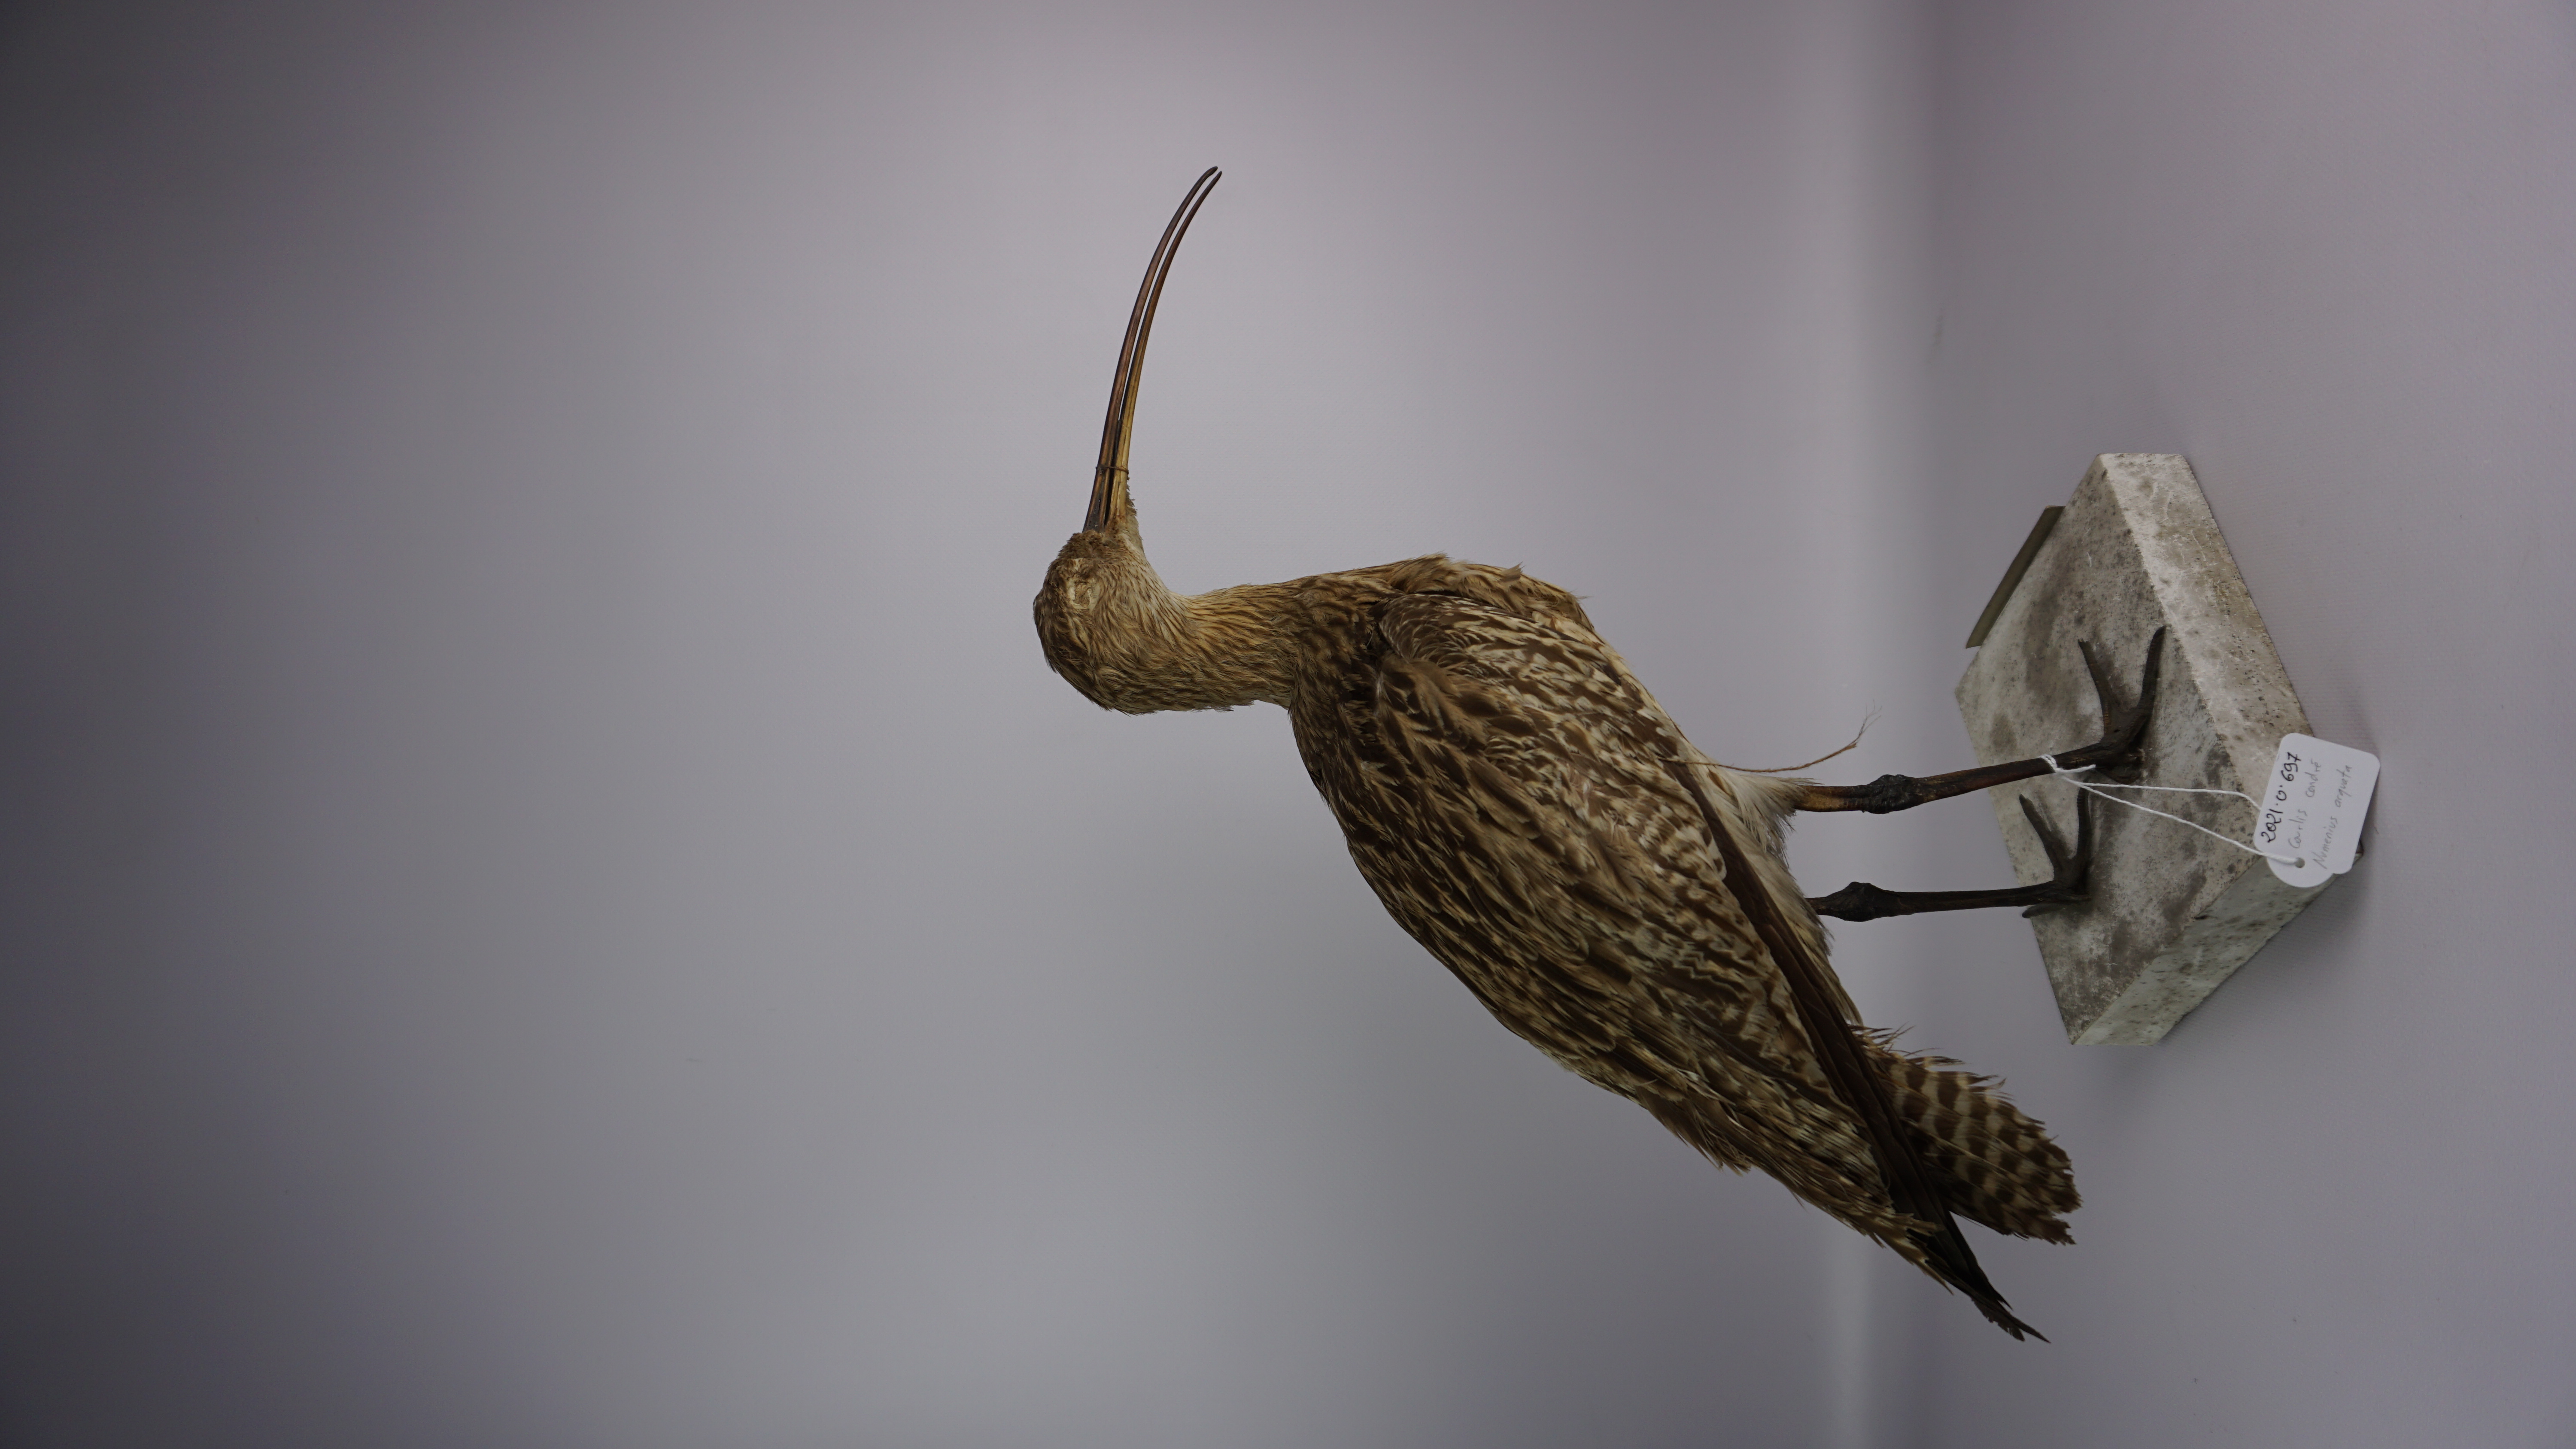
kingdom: Animalia
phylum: Chordata
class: Aves
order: Charadriiformes
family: Scolopacidae
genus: Numenius
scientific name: Numenius arquata
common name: Eurasian curlew
